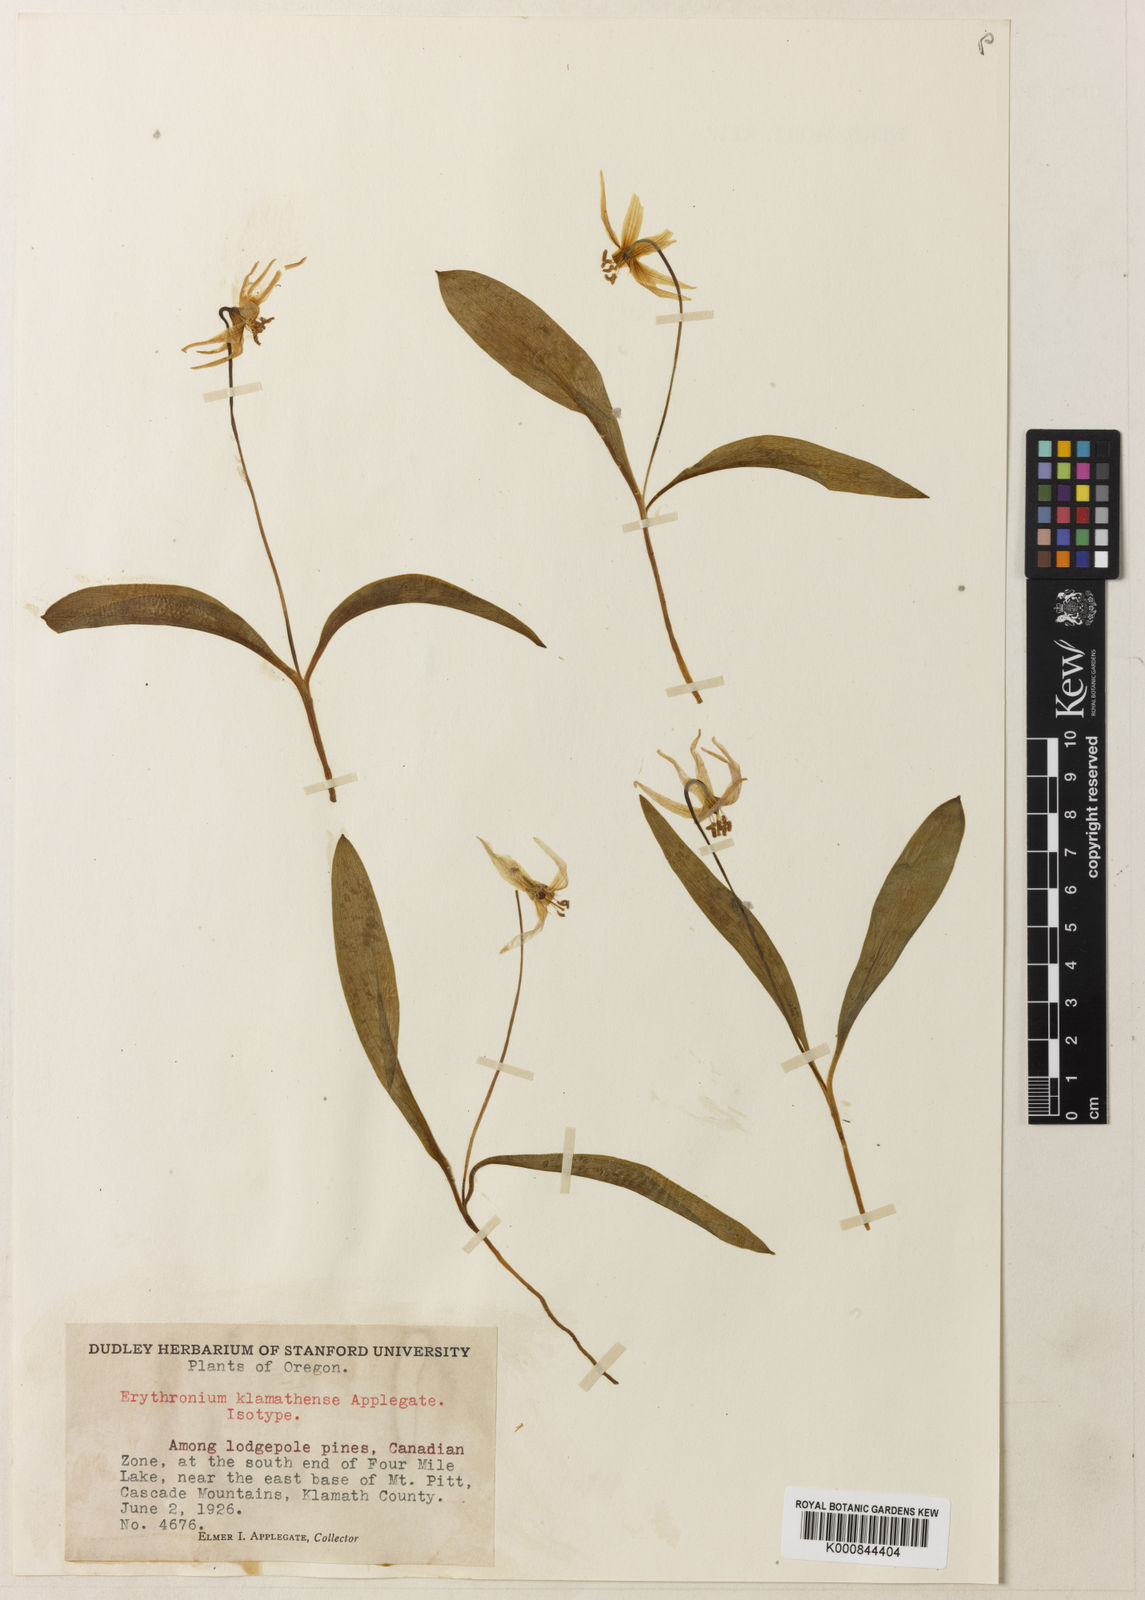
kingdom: Plantae
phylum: Tracheophyta
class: Liliopsida
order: Liliales
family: Liliaceae
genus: Erythronium
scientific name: Erythronium klamathense
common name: Klamath fawn-lily
